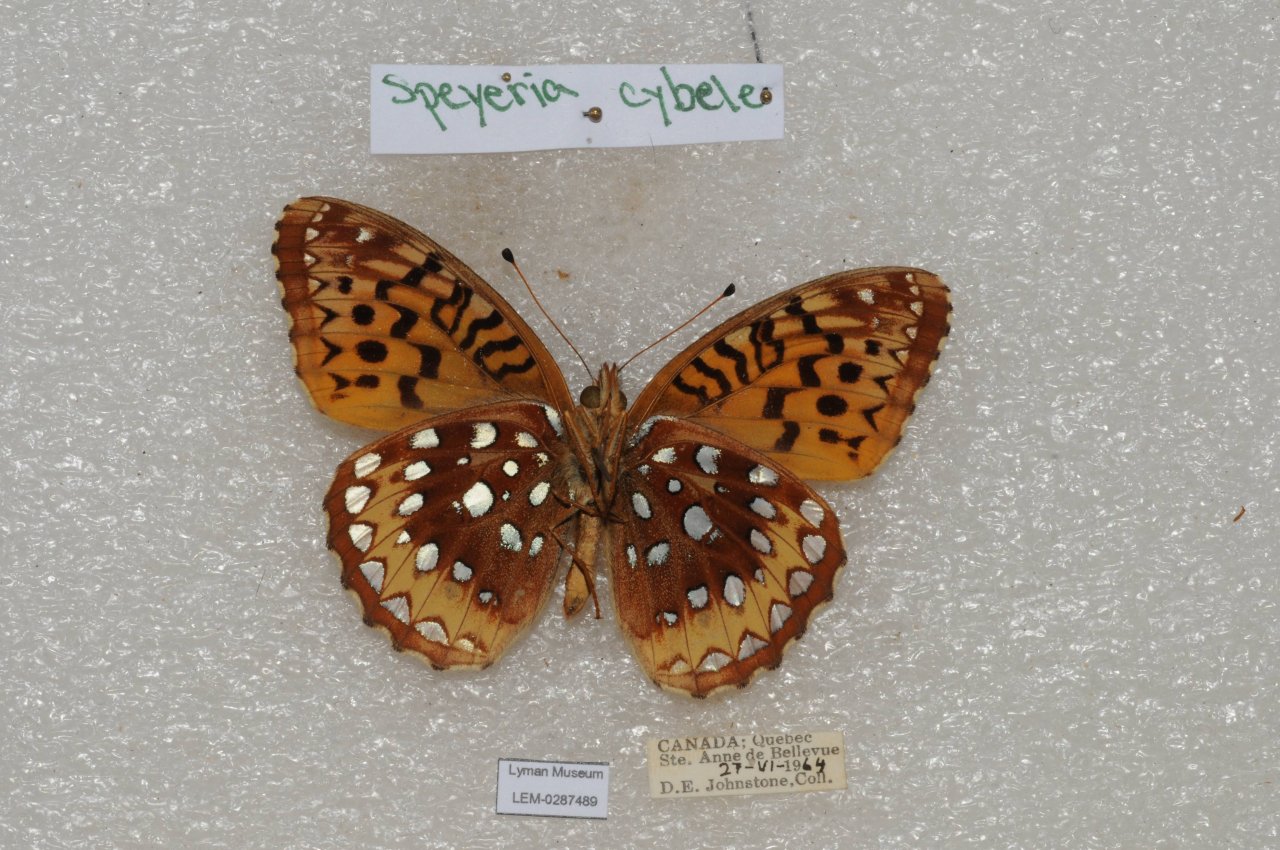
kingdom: Animalia
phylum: Arthropoda
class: Insecta
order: Lepidoptera
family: Nymphalidae
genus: Speyeria
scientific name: Speyeria cybele
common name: Great Spangled Fritillary
